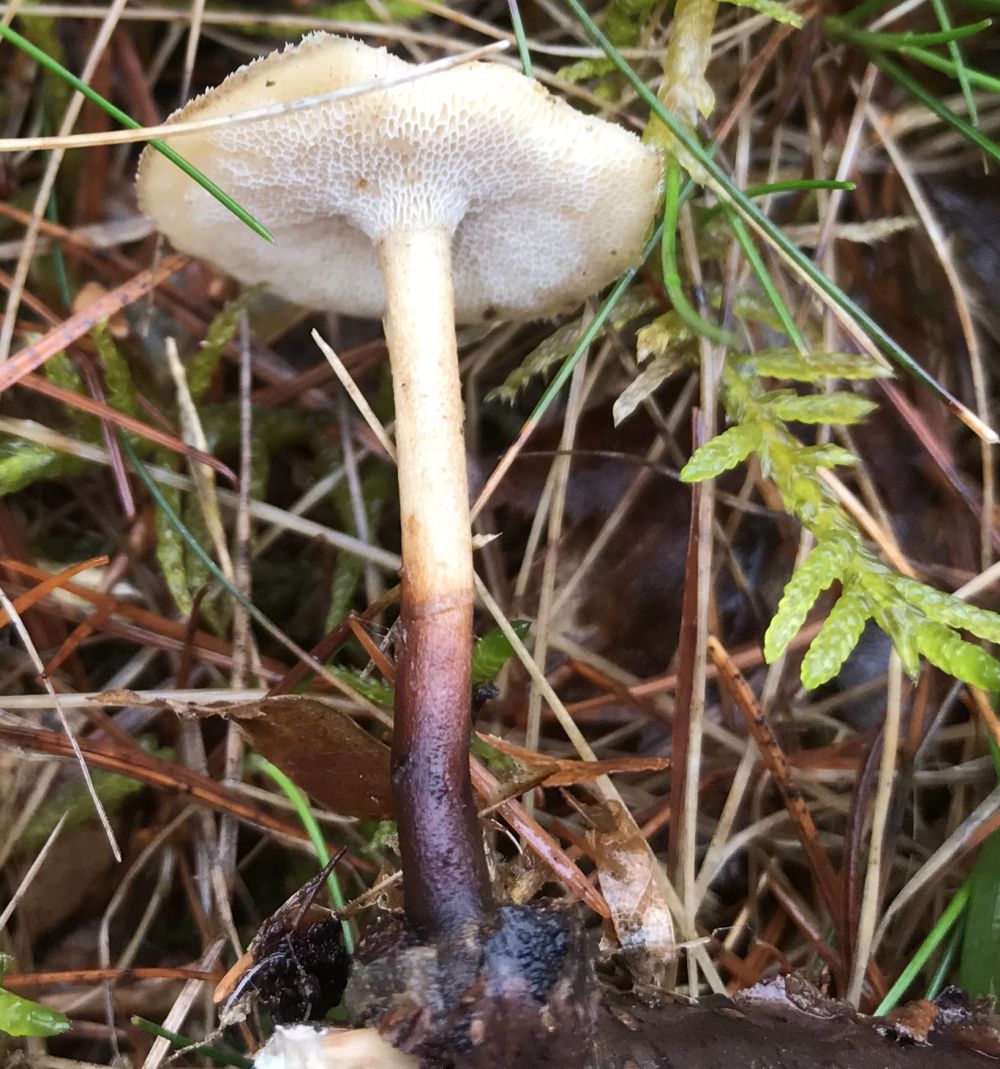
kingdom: Fungi
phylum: Basidiomycota
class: Agaricomycetes
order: Polyporales
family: Polyporaceae
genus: Lentinus
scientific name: Lentinus brumalis
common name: vinter-stilkporesvamp
